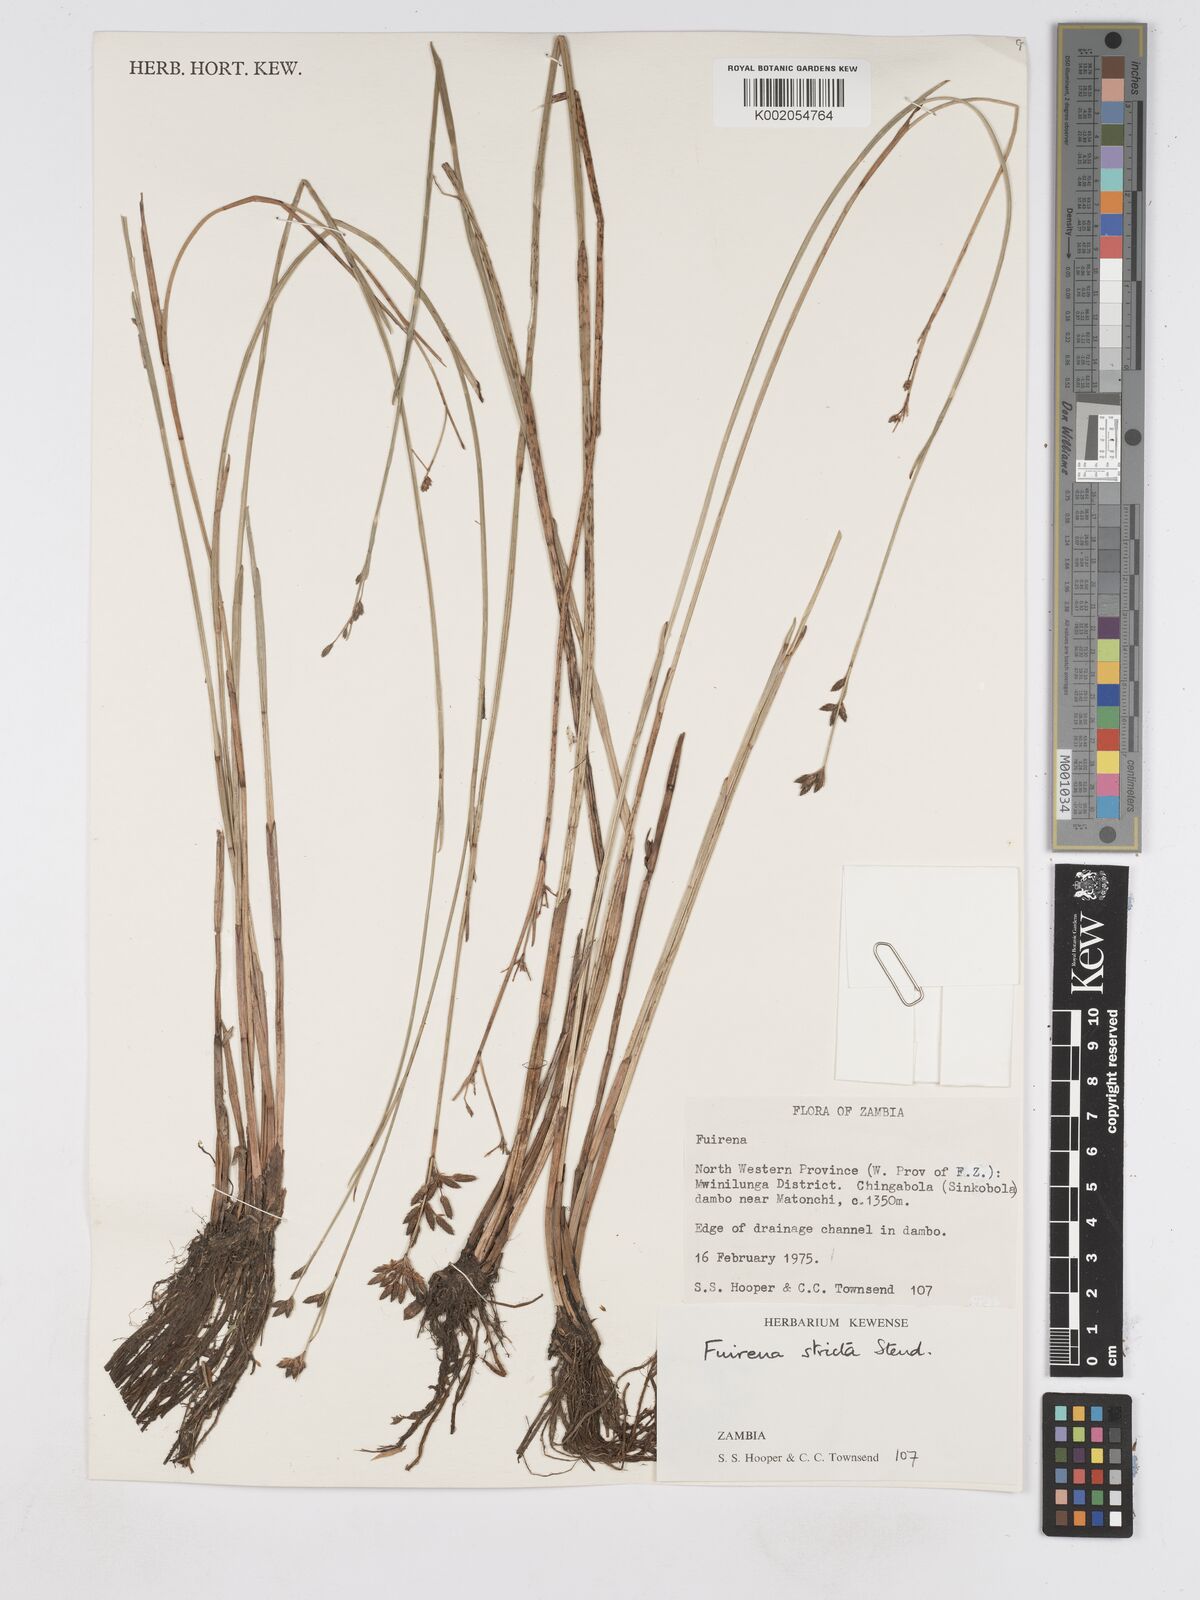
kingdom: Plantae
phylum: Tracheophyta
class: Liliopsida
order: Poales
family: Cyperaceae
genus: Fuirena
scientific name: Fuirena stricta
